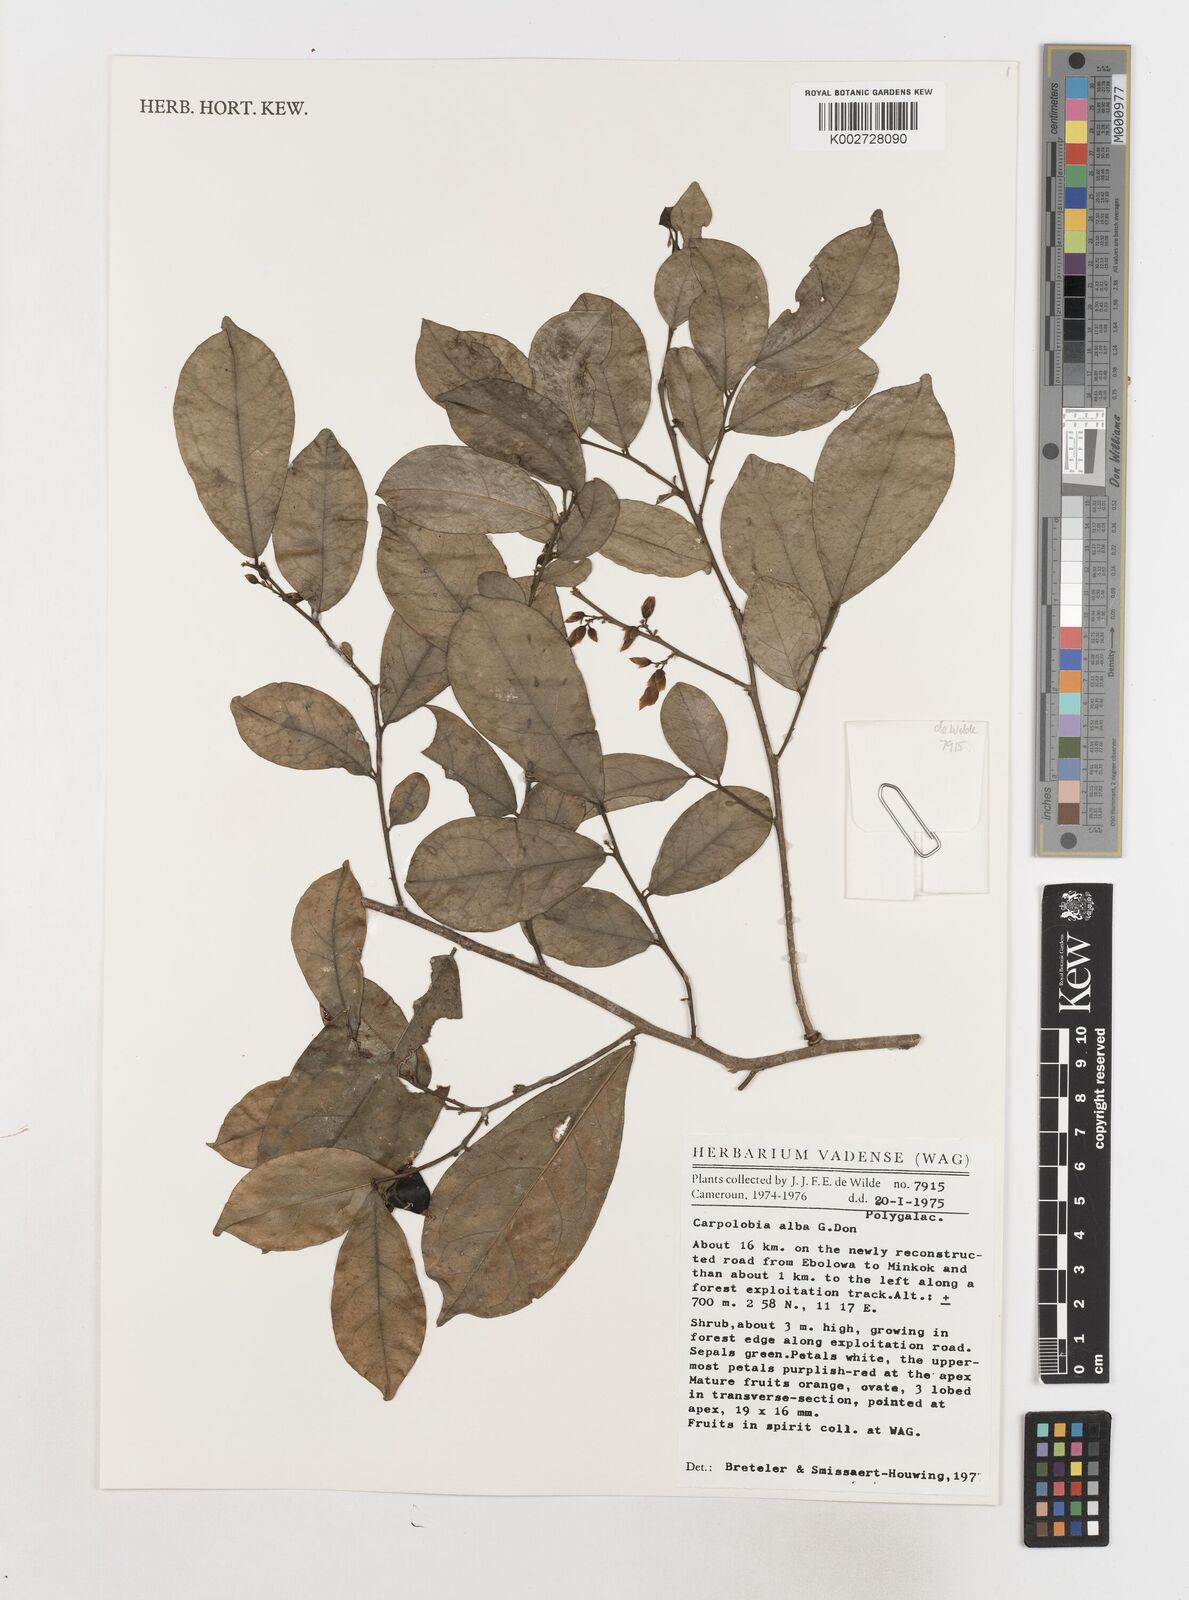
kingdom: Plantae
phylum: Tracheophyta
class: Magnoliopsida
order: Fabales
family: Polygalaceae
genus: Carpolobia
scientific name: Carpolobia alba
